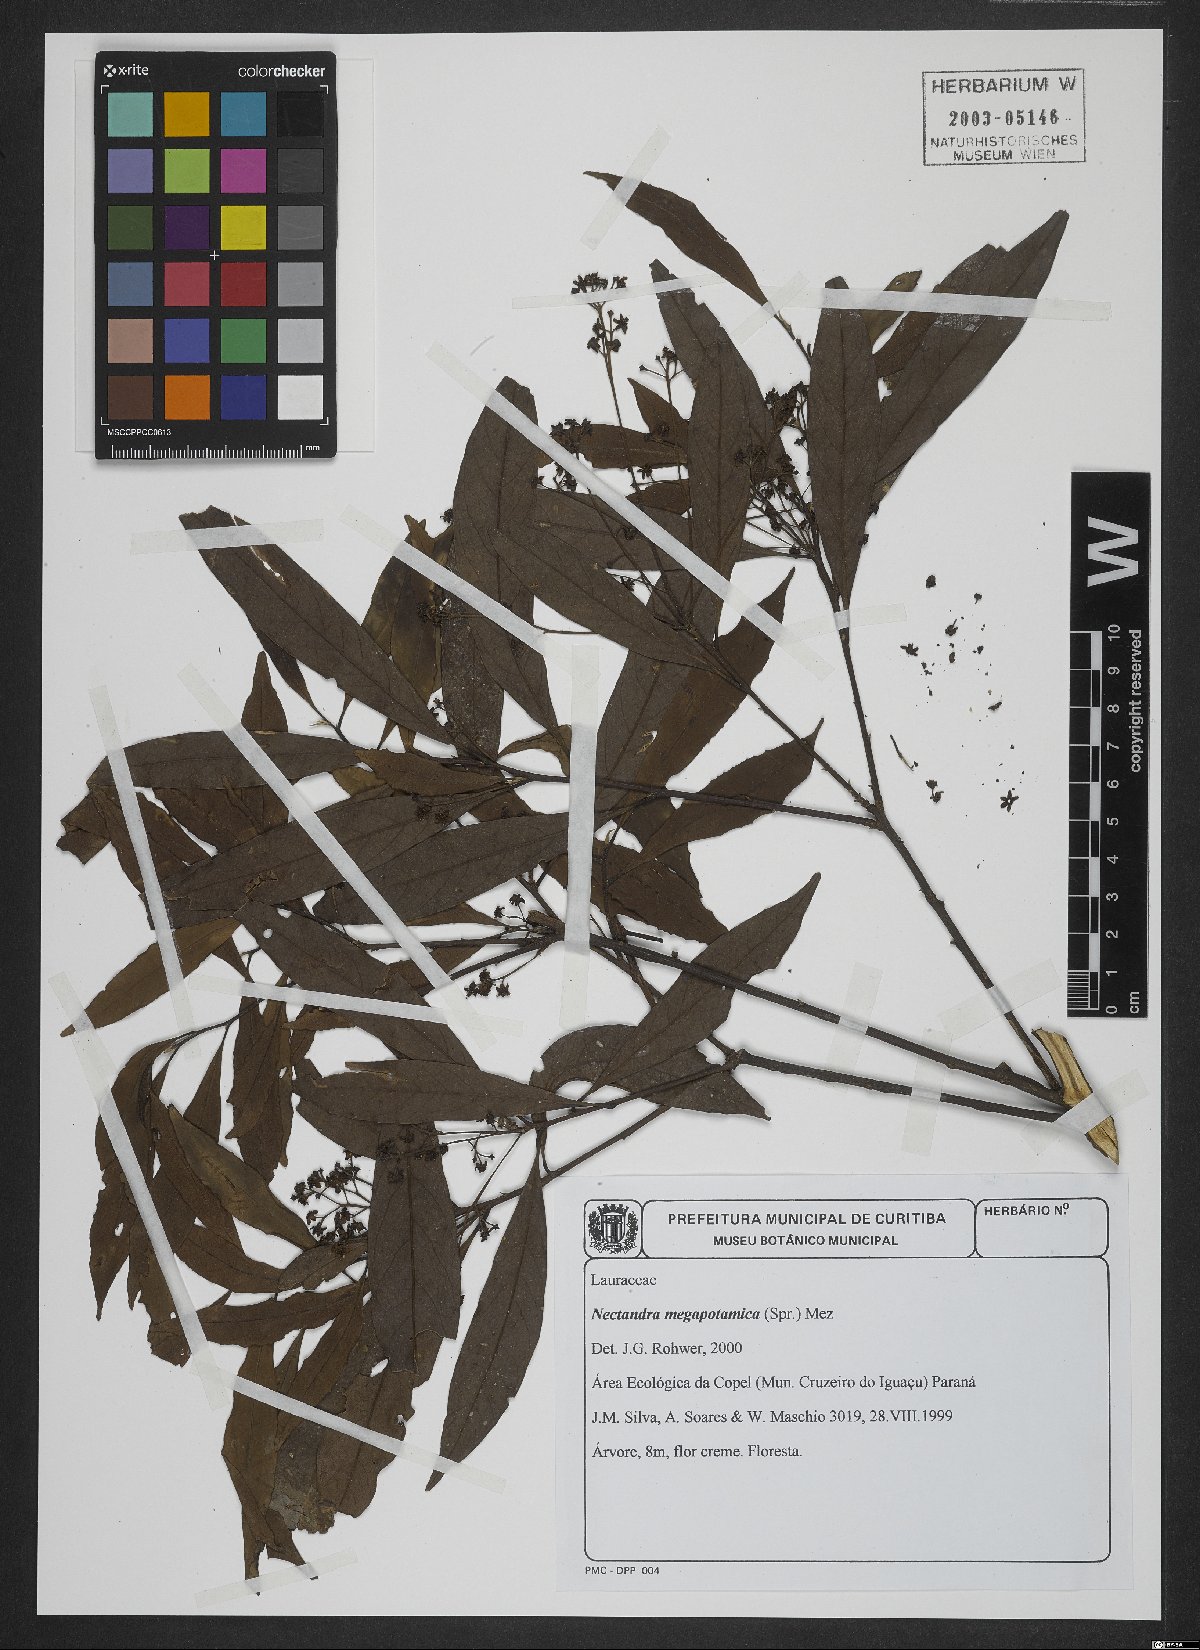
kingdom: Plantae
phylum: Tracheophyta
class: Magnoliopsida
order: Laurales
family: Lauraceae
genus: Nectandra
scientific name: Nectandra megapotamica
